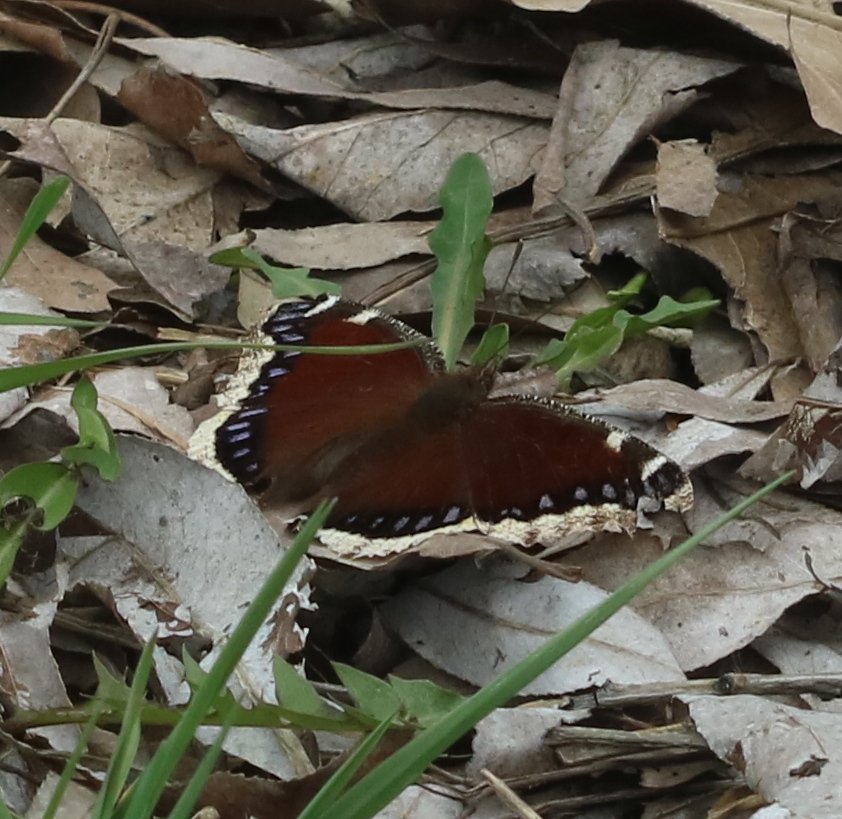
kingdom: Animalia
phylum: Arthropoda
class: Insecta
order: Lepidoptera
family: Nymphalidae
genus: Nymphalis
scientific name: Nymphalis antiopa
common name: Mourning Cloak
